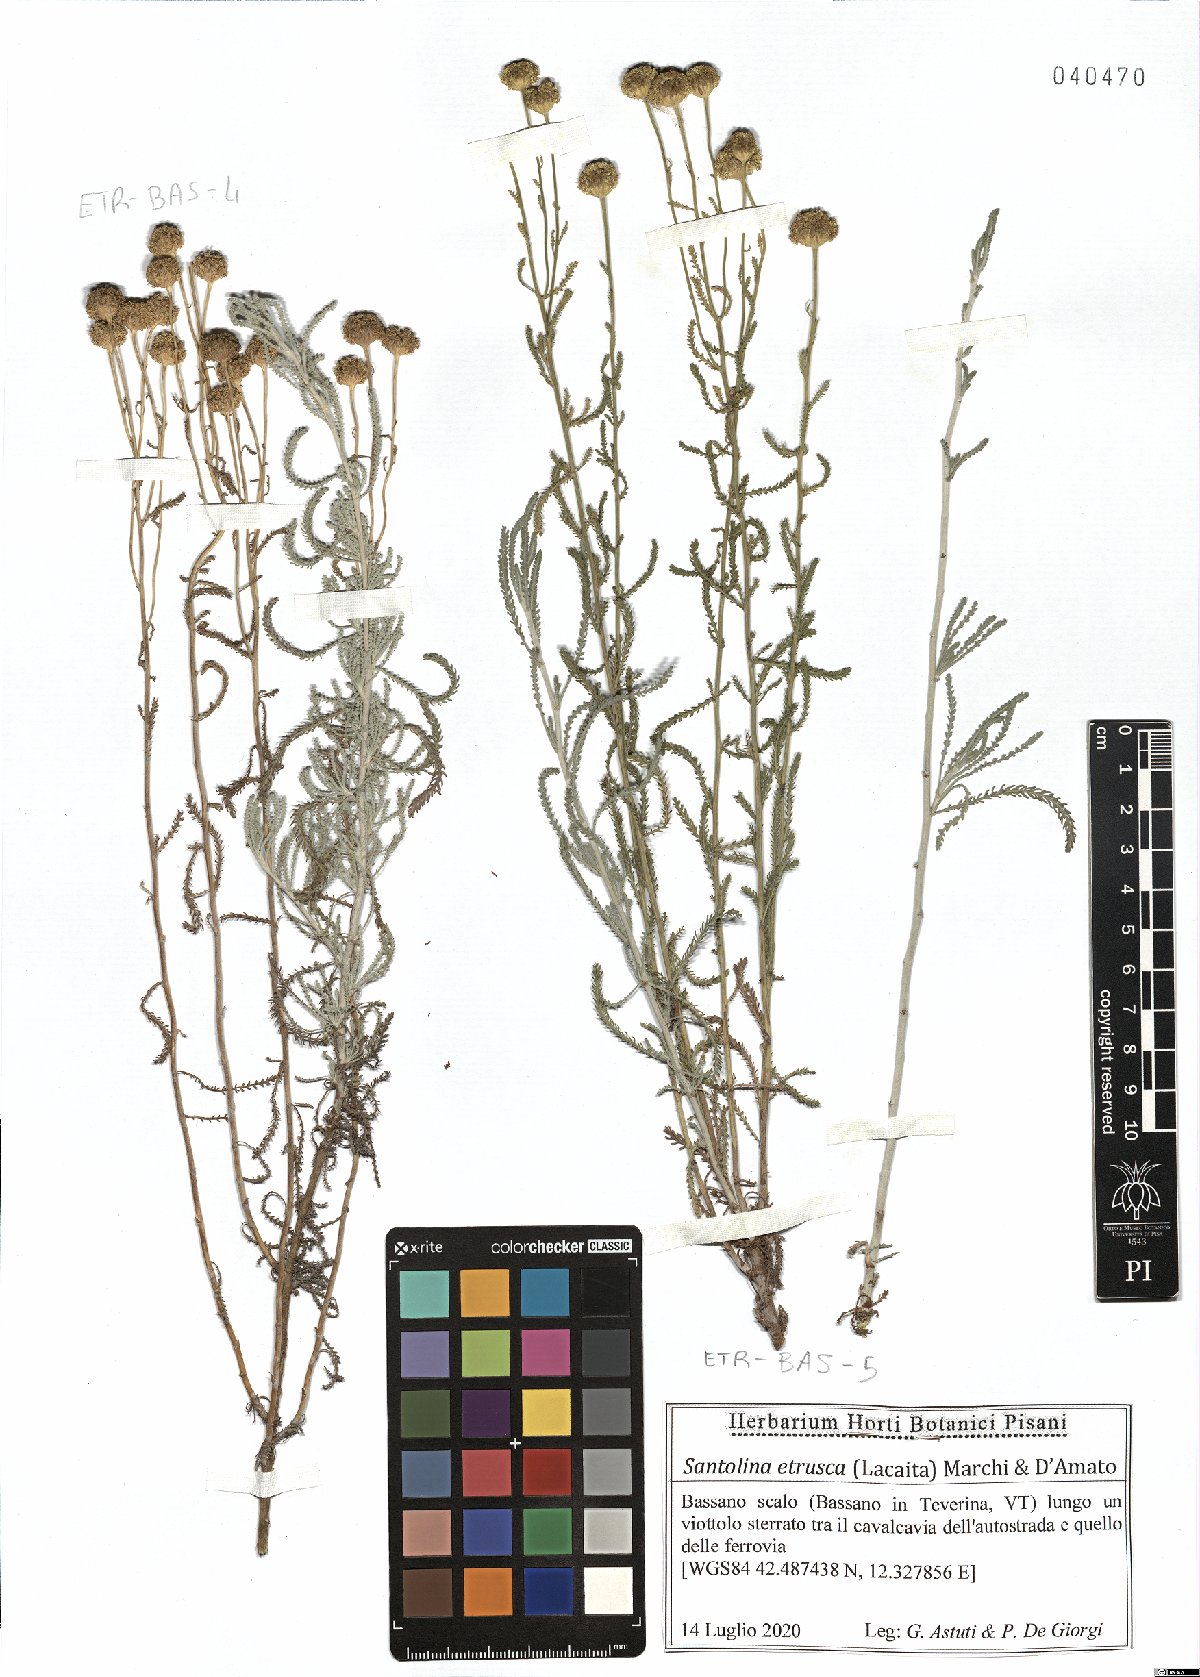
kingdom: Plantae
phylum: Tracheophyta
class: Magnoliopsida
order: Asterales
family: Asteraceae
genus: Santolina
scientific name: Santolina etrusca
